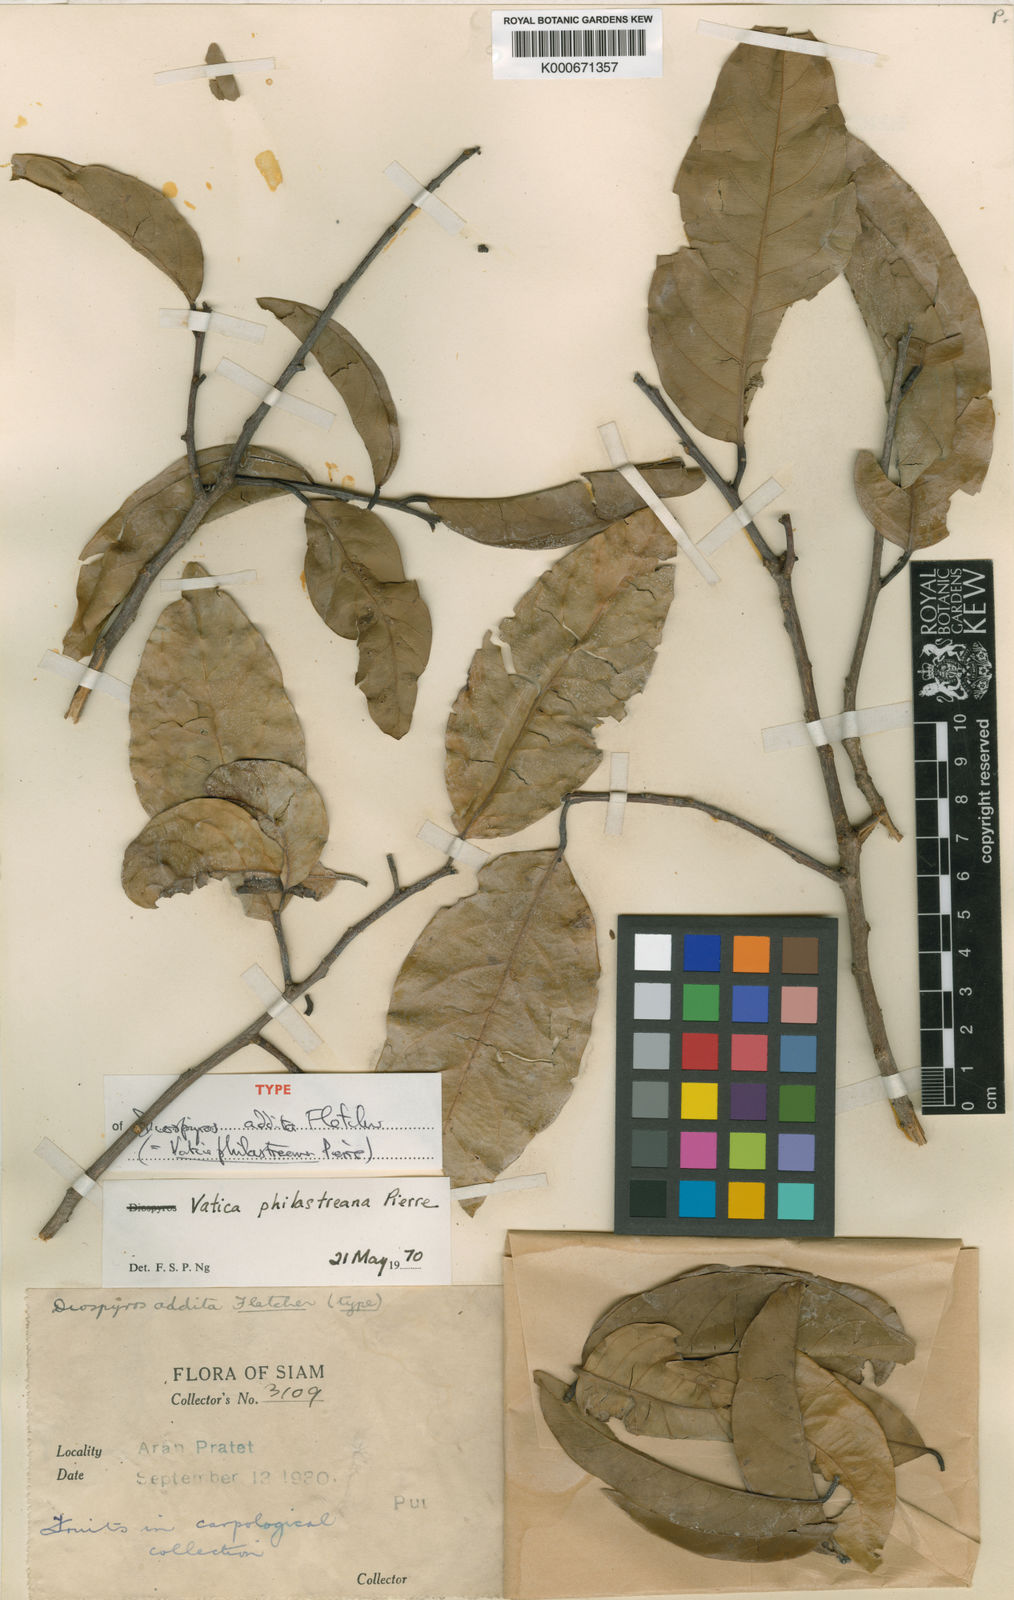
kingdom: Plantae
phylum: Tracheophyta
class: Magnoliopsida
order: Malvales
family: Dipterocarpaceae
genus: Vatica
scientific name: Vatica philastreana
